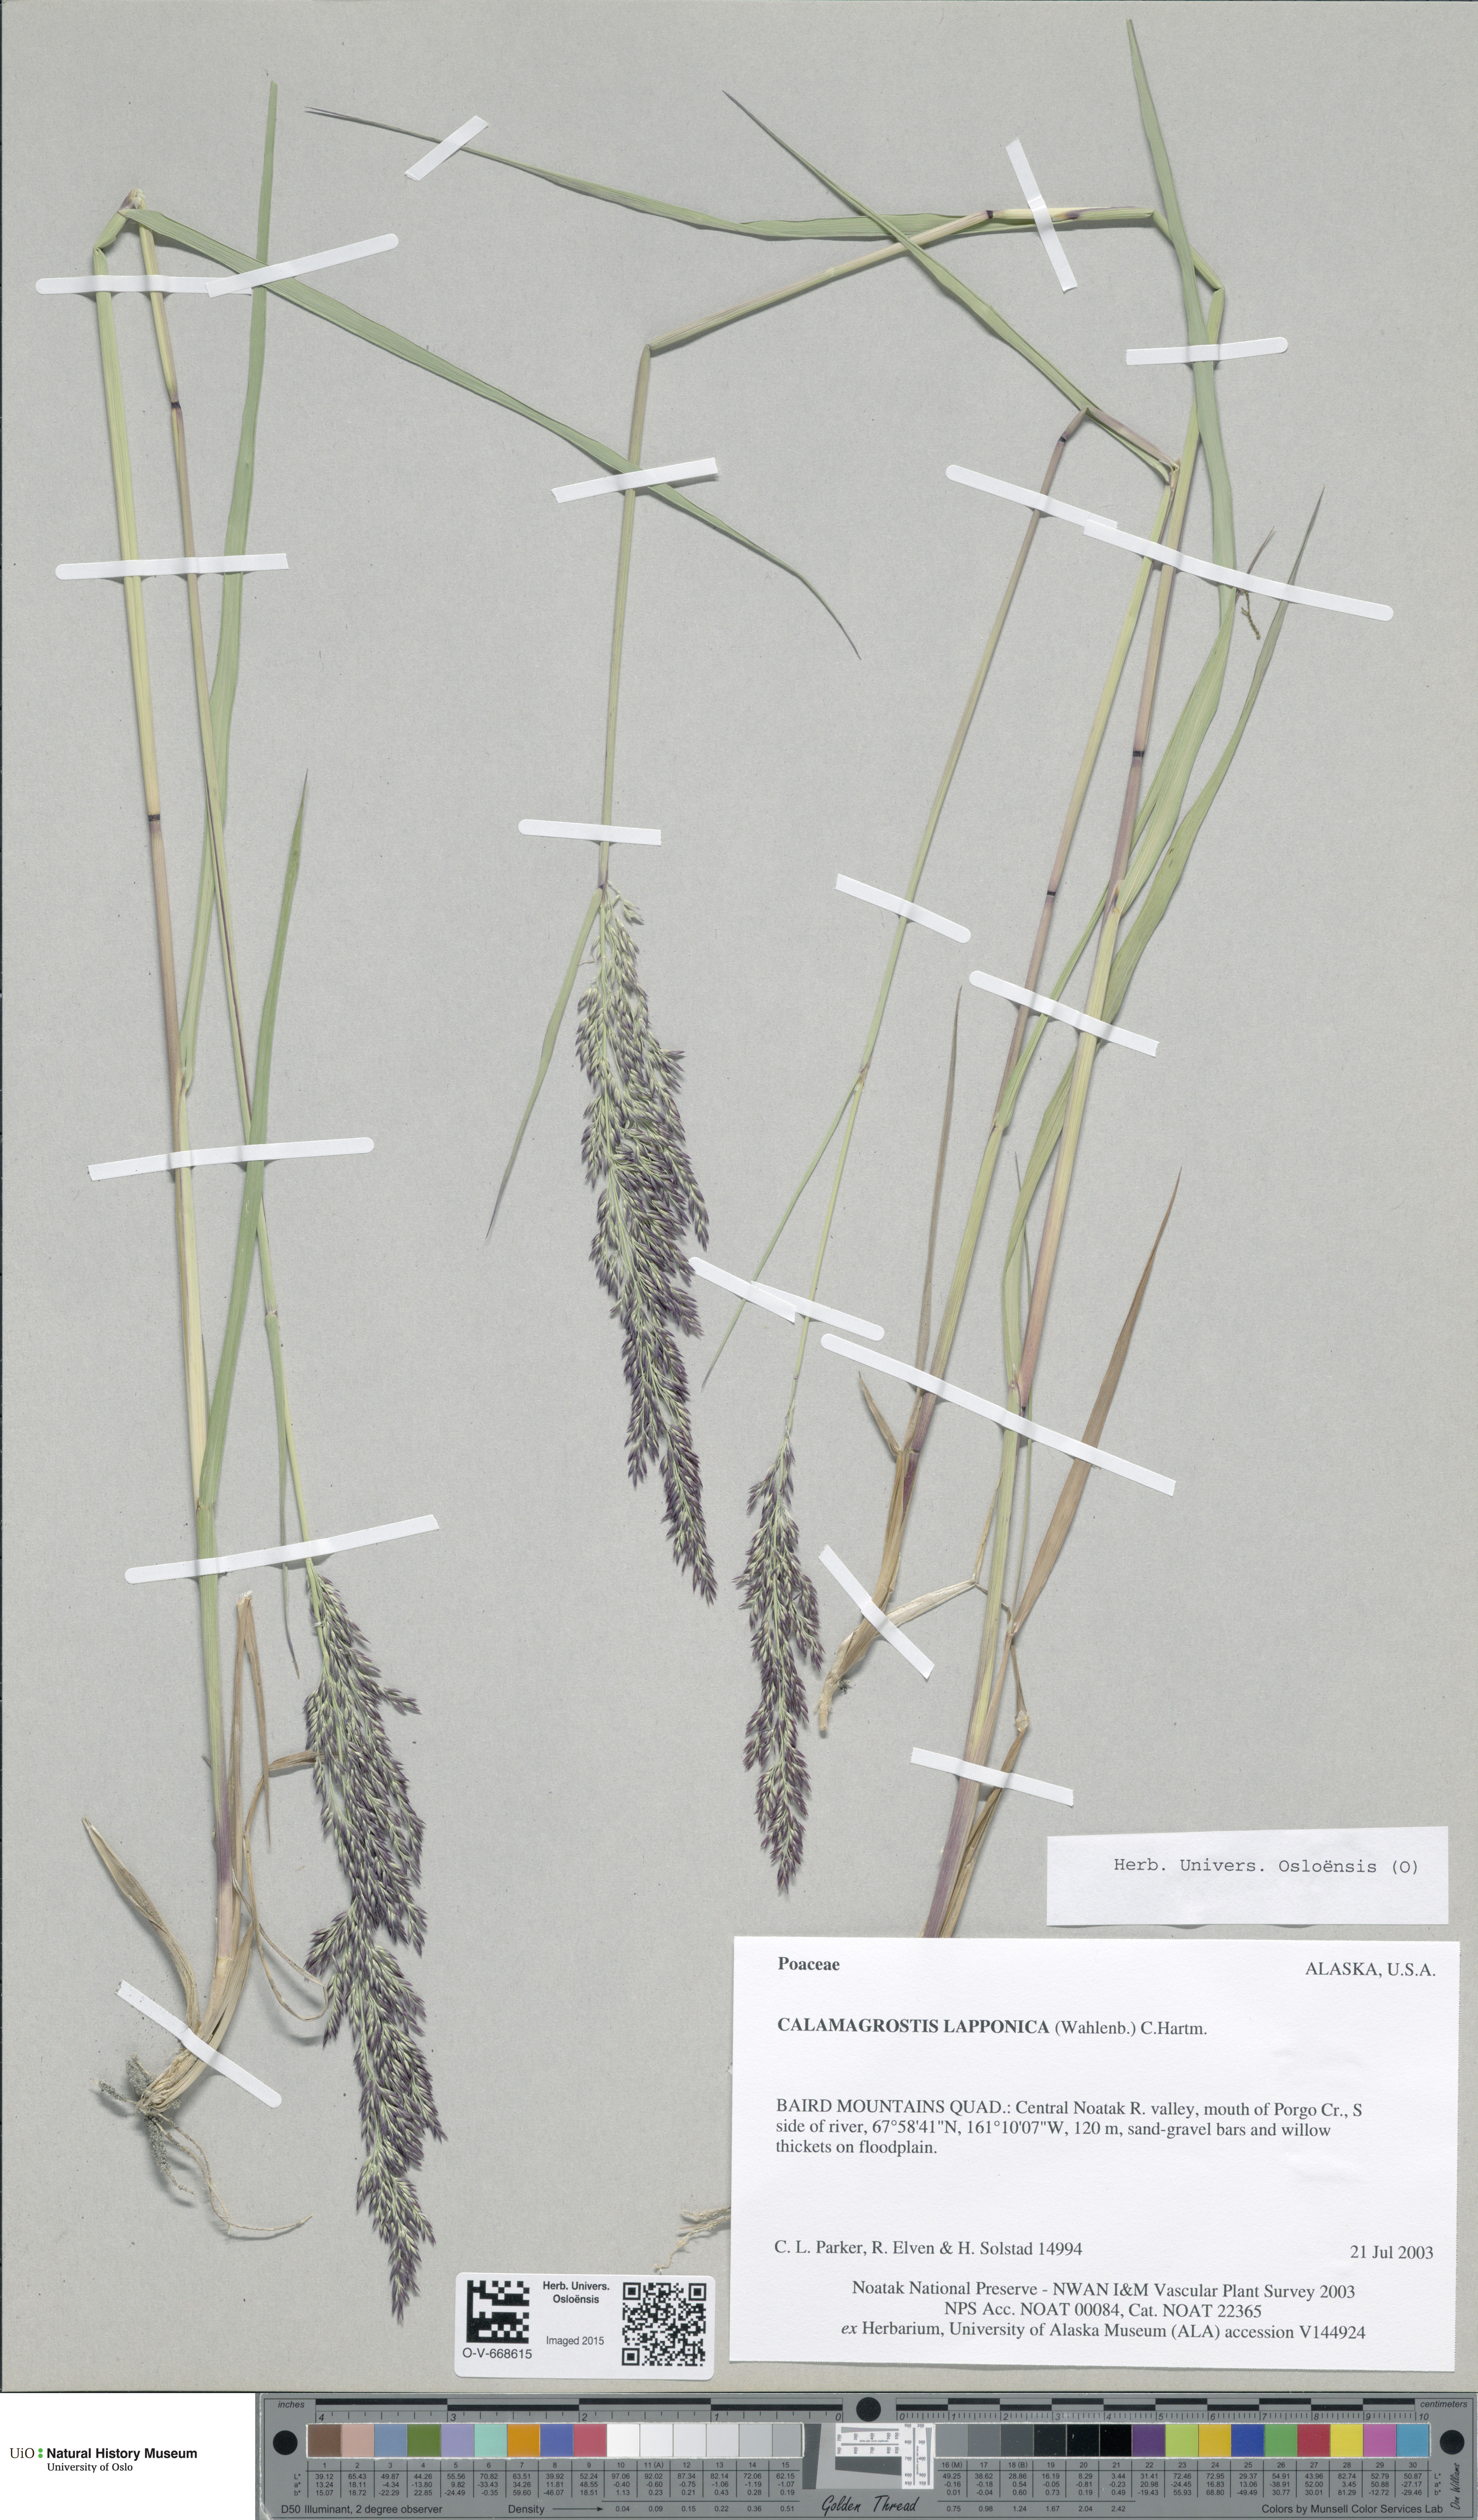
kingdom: Plantae
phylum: Tracheophyta
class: Liliopsida
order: Poales
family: Poaceae
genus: Calamagrostis
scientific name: Calamagrostis lapponica
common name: Lapland reedgrass
